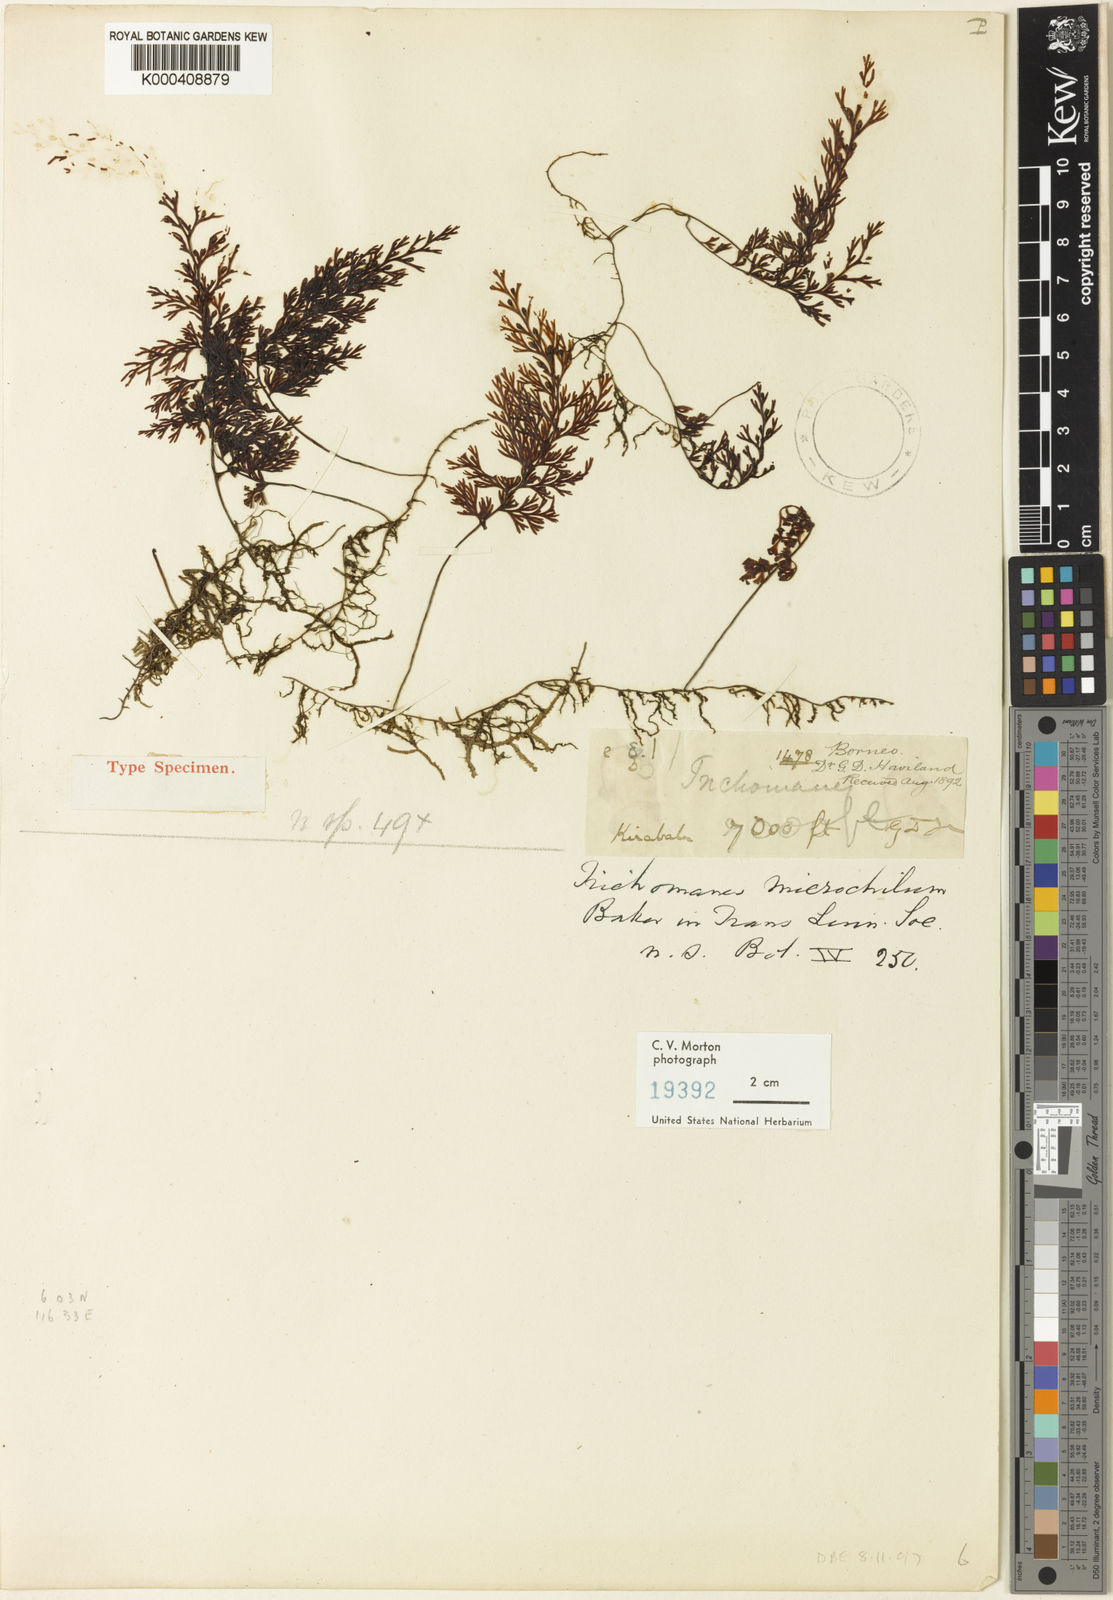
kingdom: Plantae
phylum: Tracheophyta
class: Polypodiopsida
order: Hymenophyllales
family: Hymenophyllaceae
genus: Hymenophyllum
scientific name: Hymenophyllum microchilum
